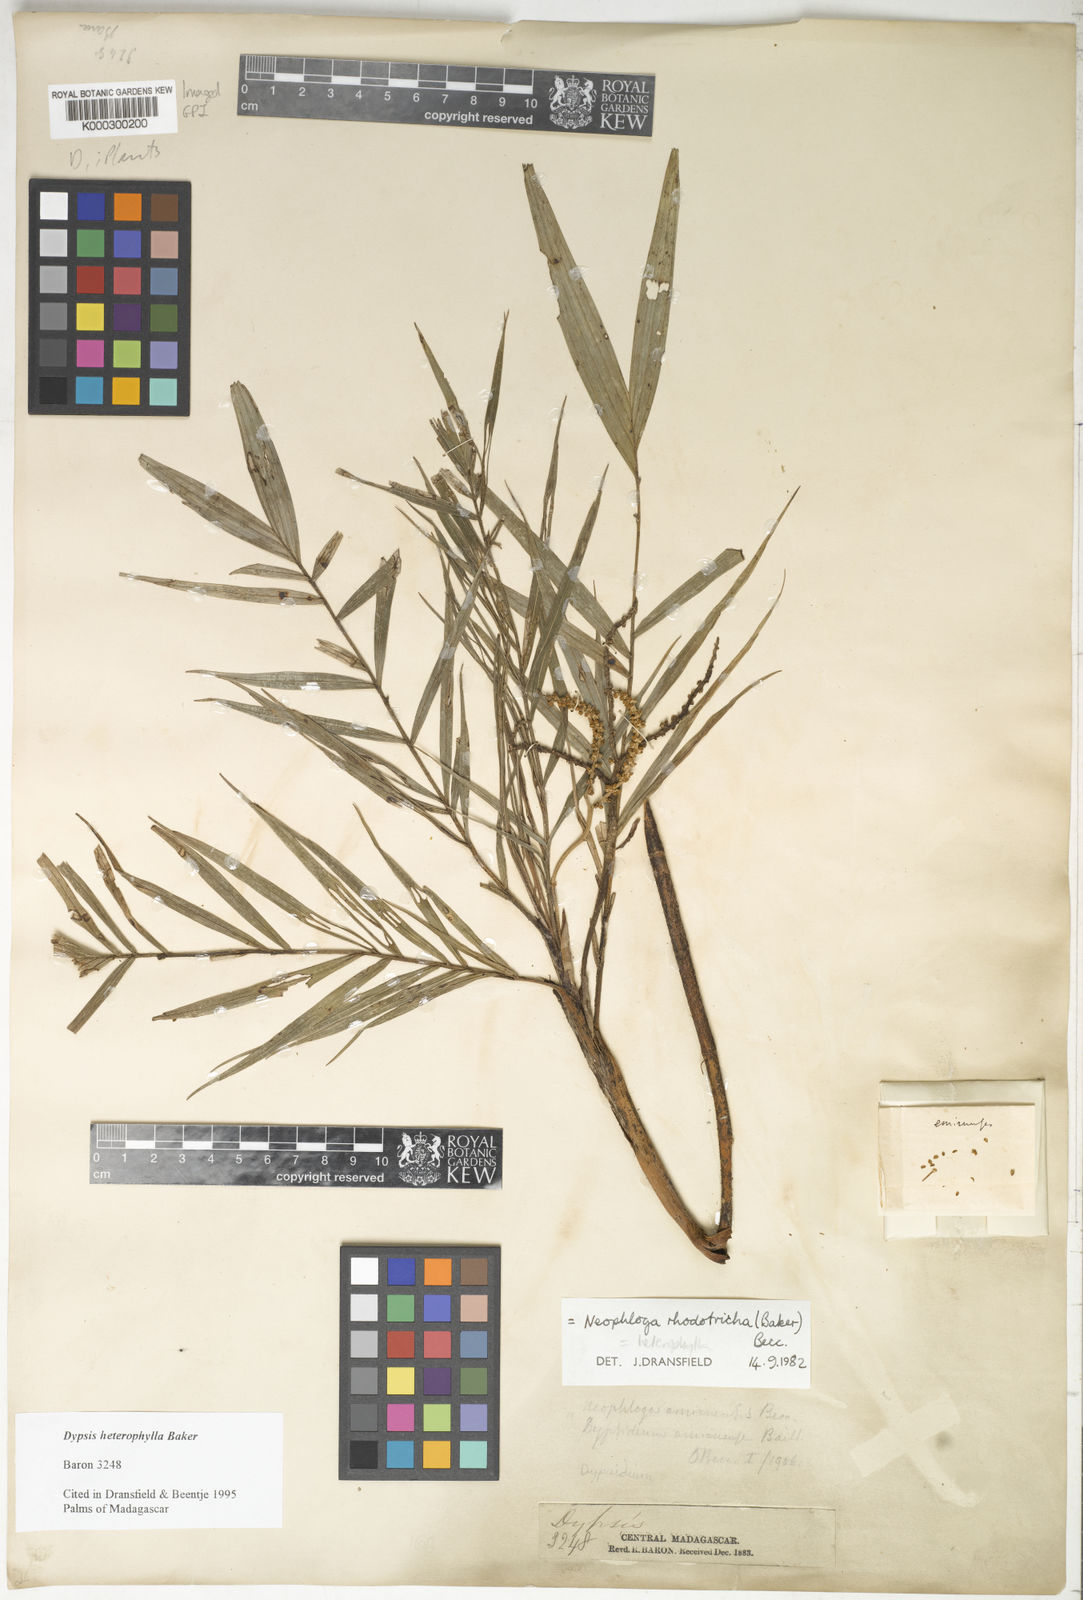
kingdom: Plantae
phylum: Tracheophyta
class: Liliopsida
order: Arecales
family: Arecaceae
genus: Dypsis
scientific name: Dypsis heterophylla
